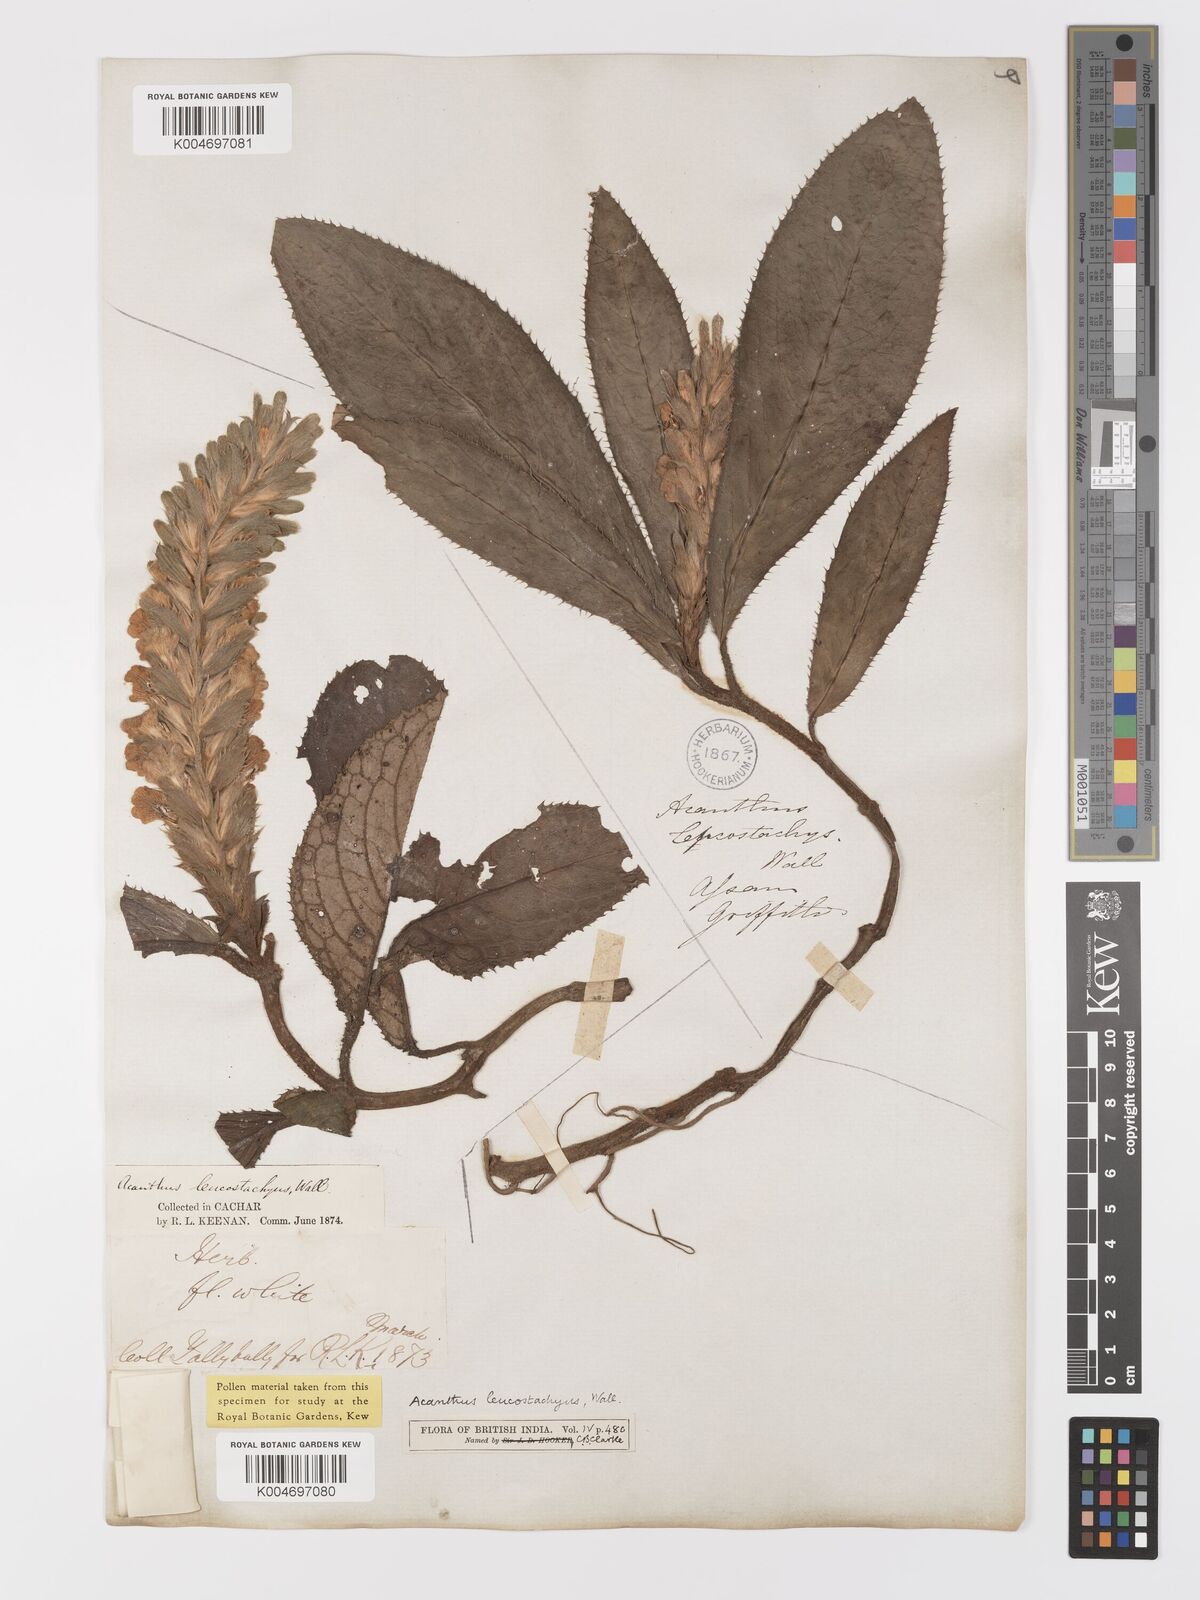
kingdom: Plantae
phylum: Tracheophyta
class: Magnoliopsida
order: Lamiales
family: Acanthaceae
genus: Acanthus
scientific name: Acanthus leucostachyus
